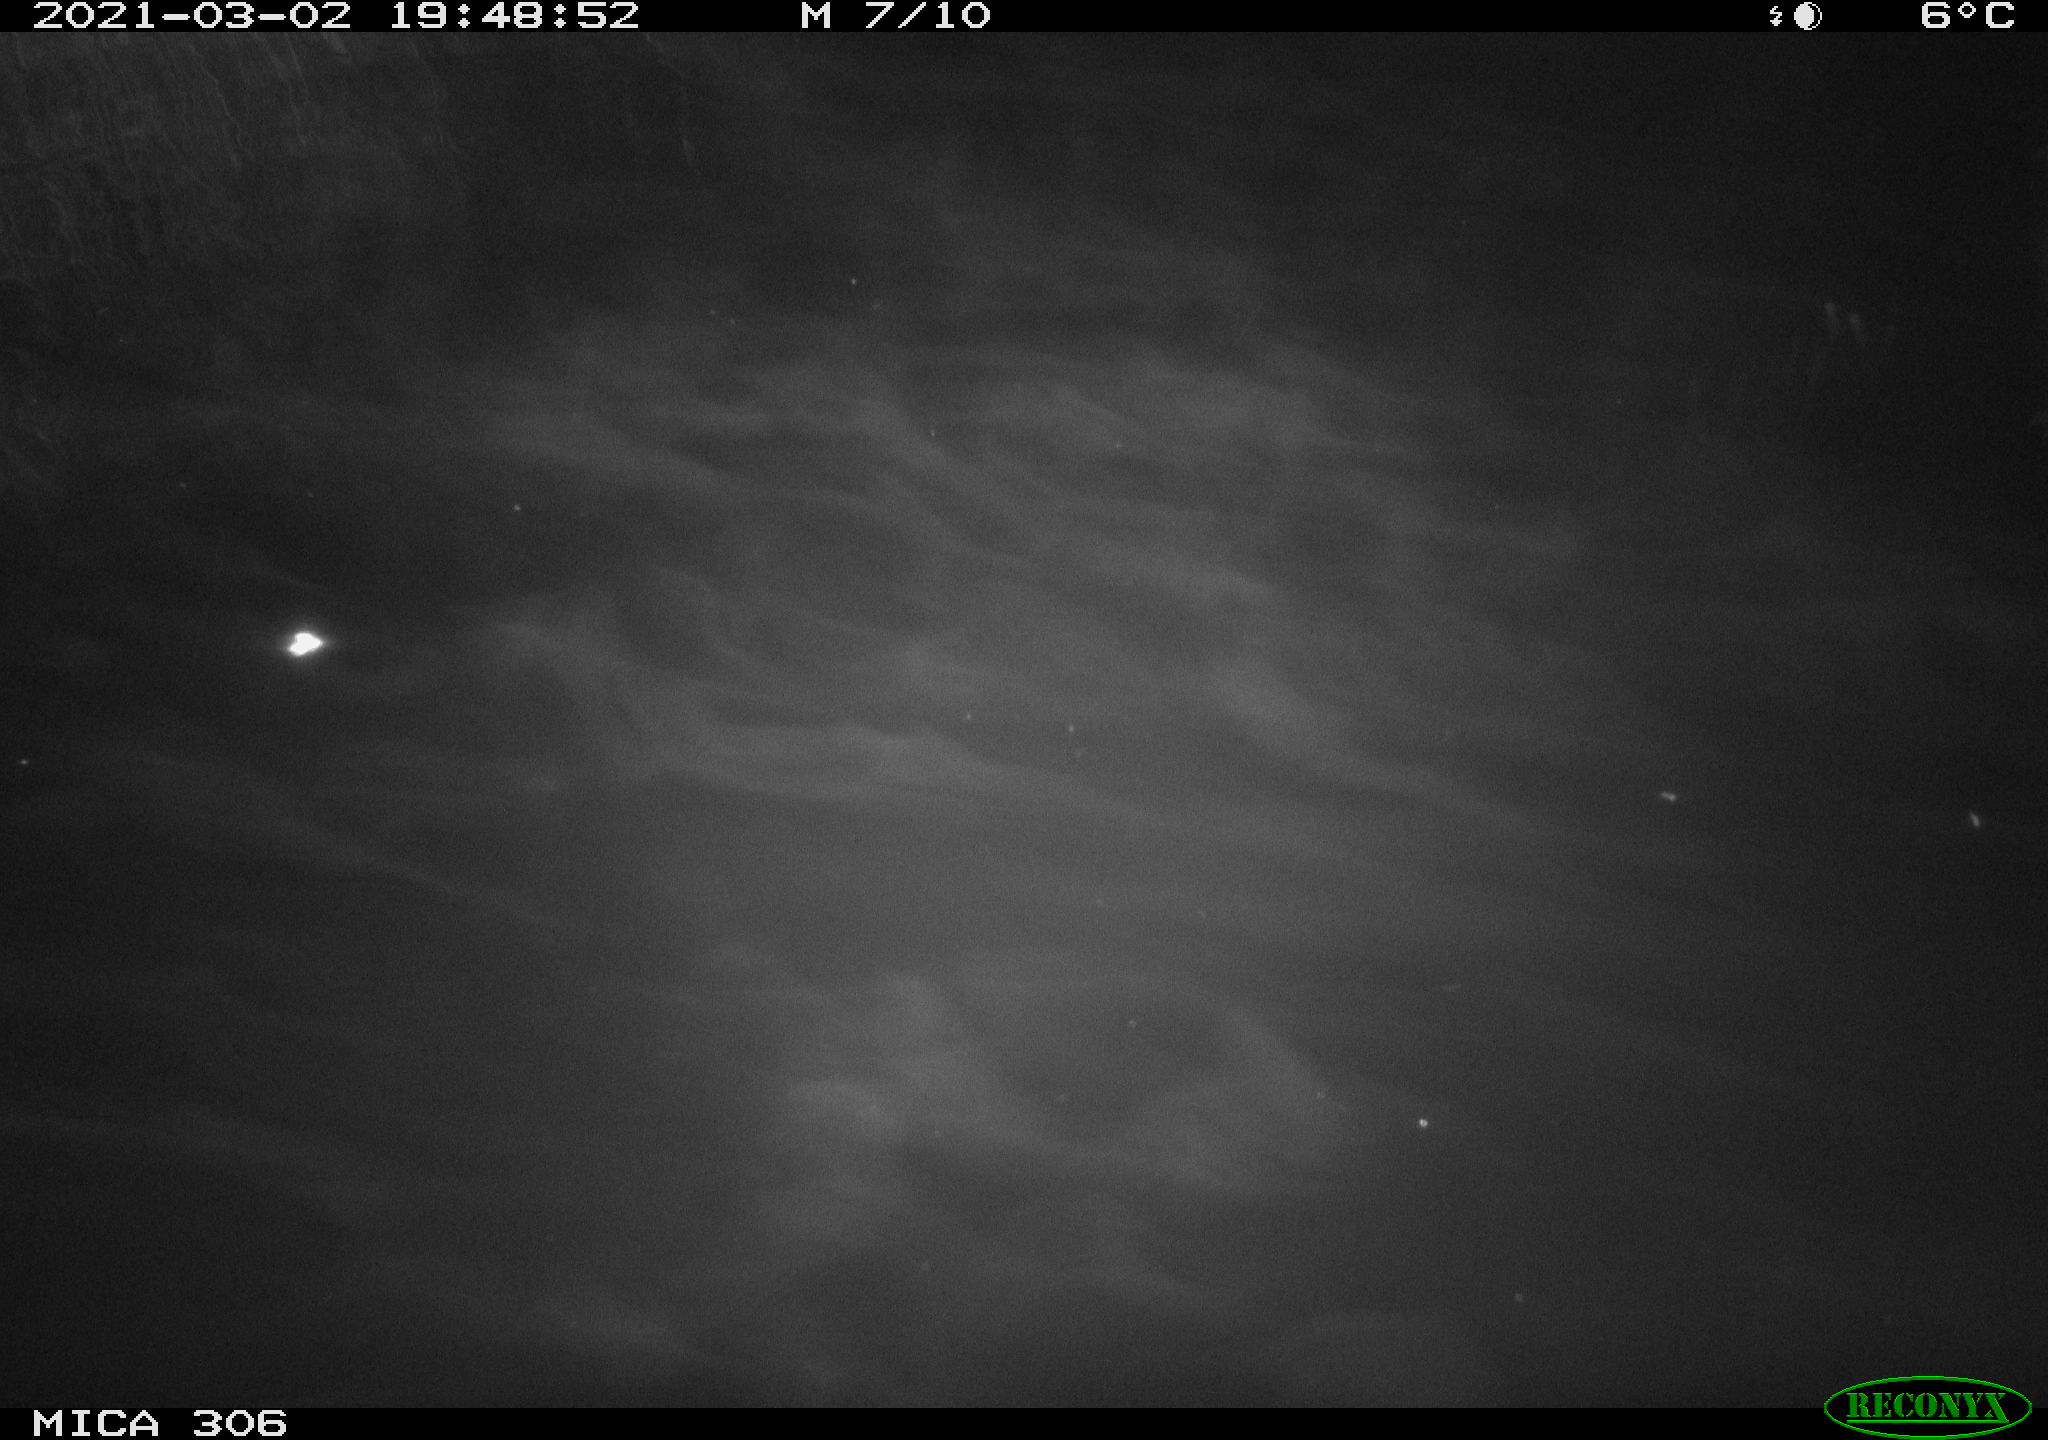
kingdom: Animalia
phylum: Chordata
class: Mammalia
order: Rodentia
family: Cricetidae
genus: Ondatra
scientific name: Ondatra zibethicus
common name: Muskrat
